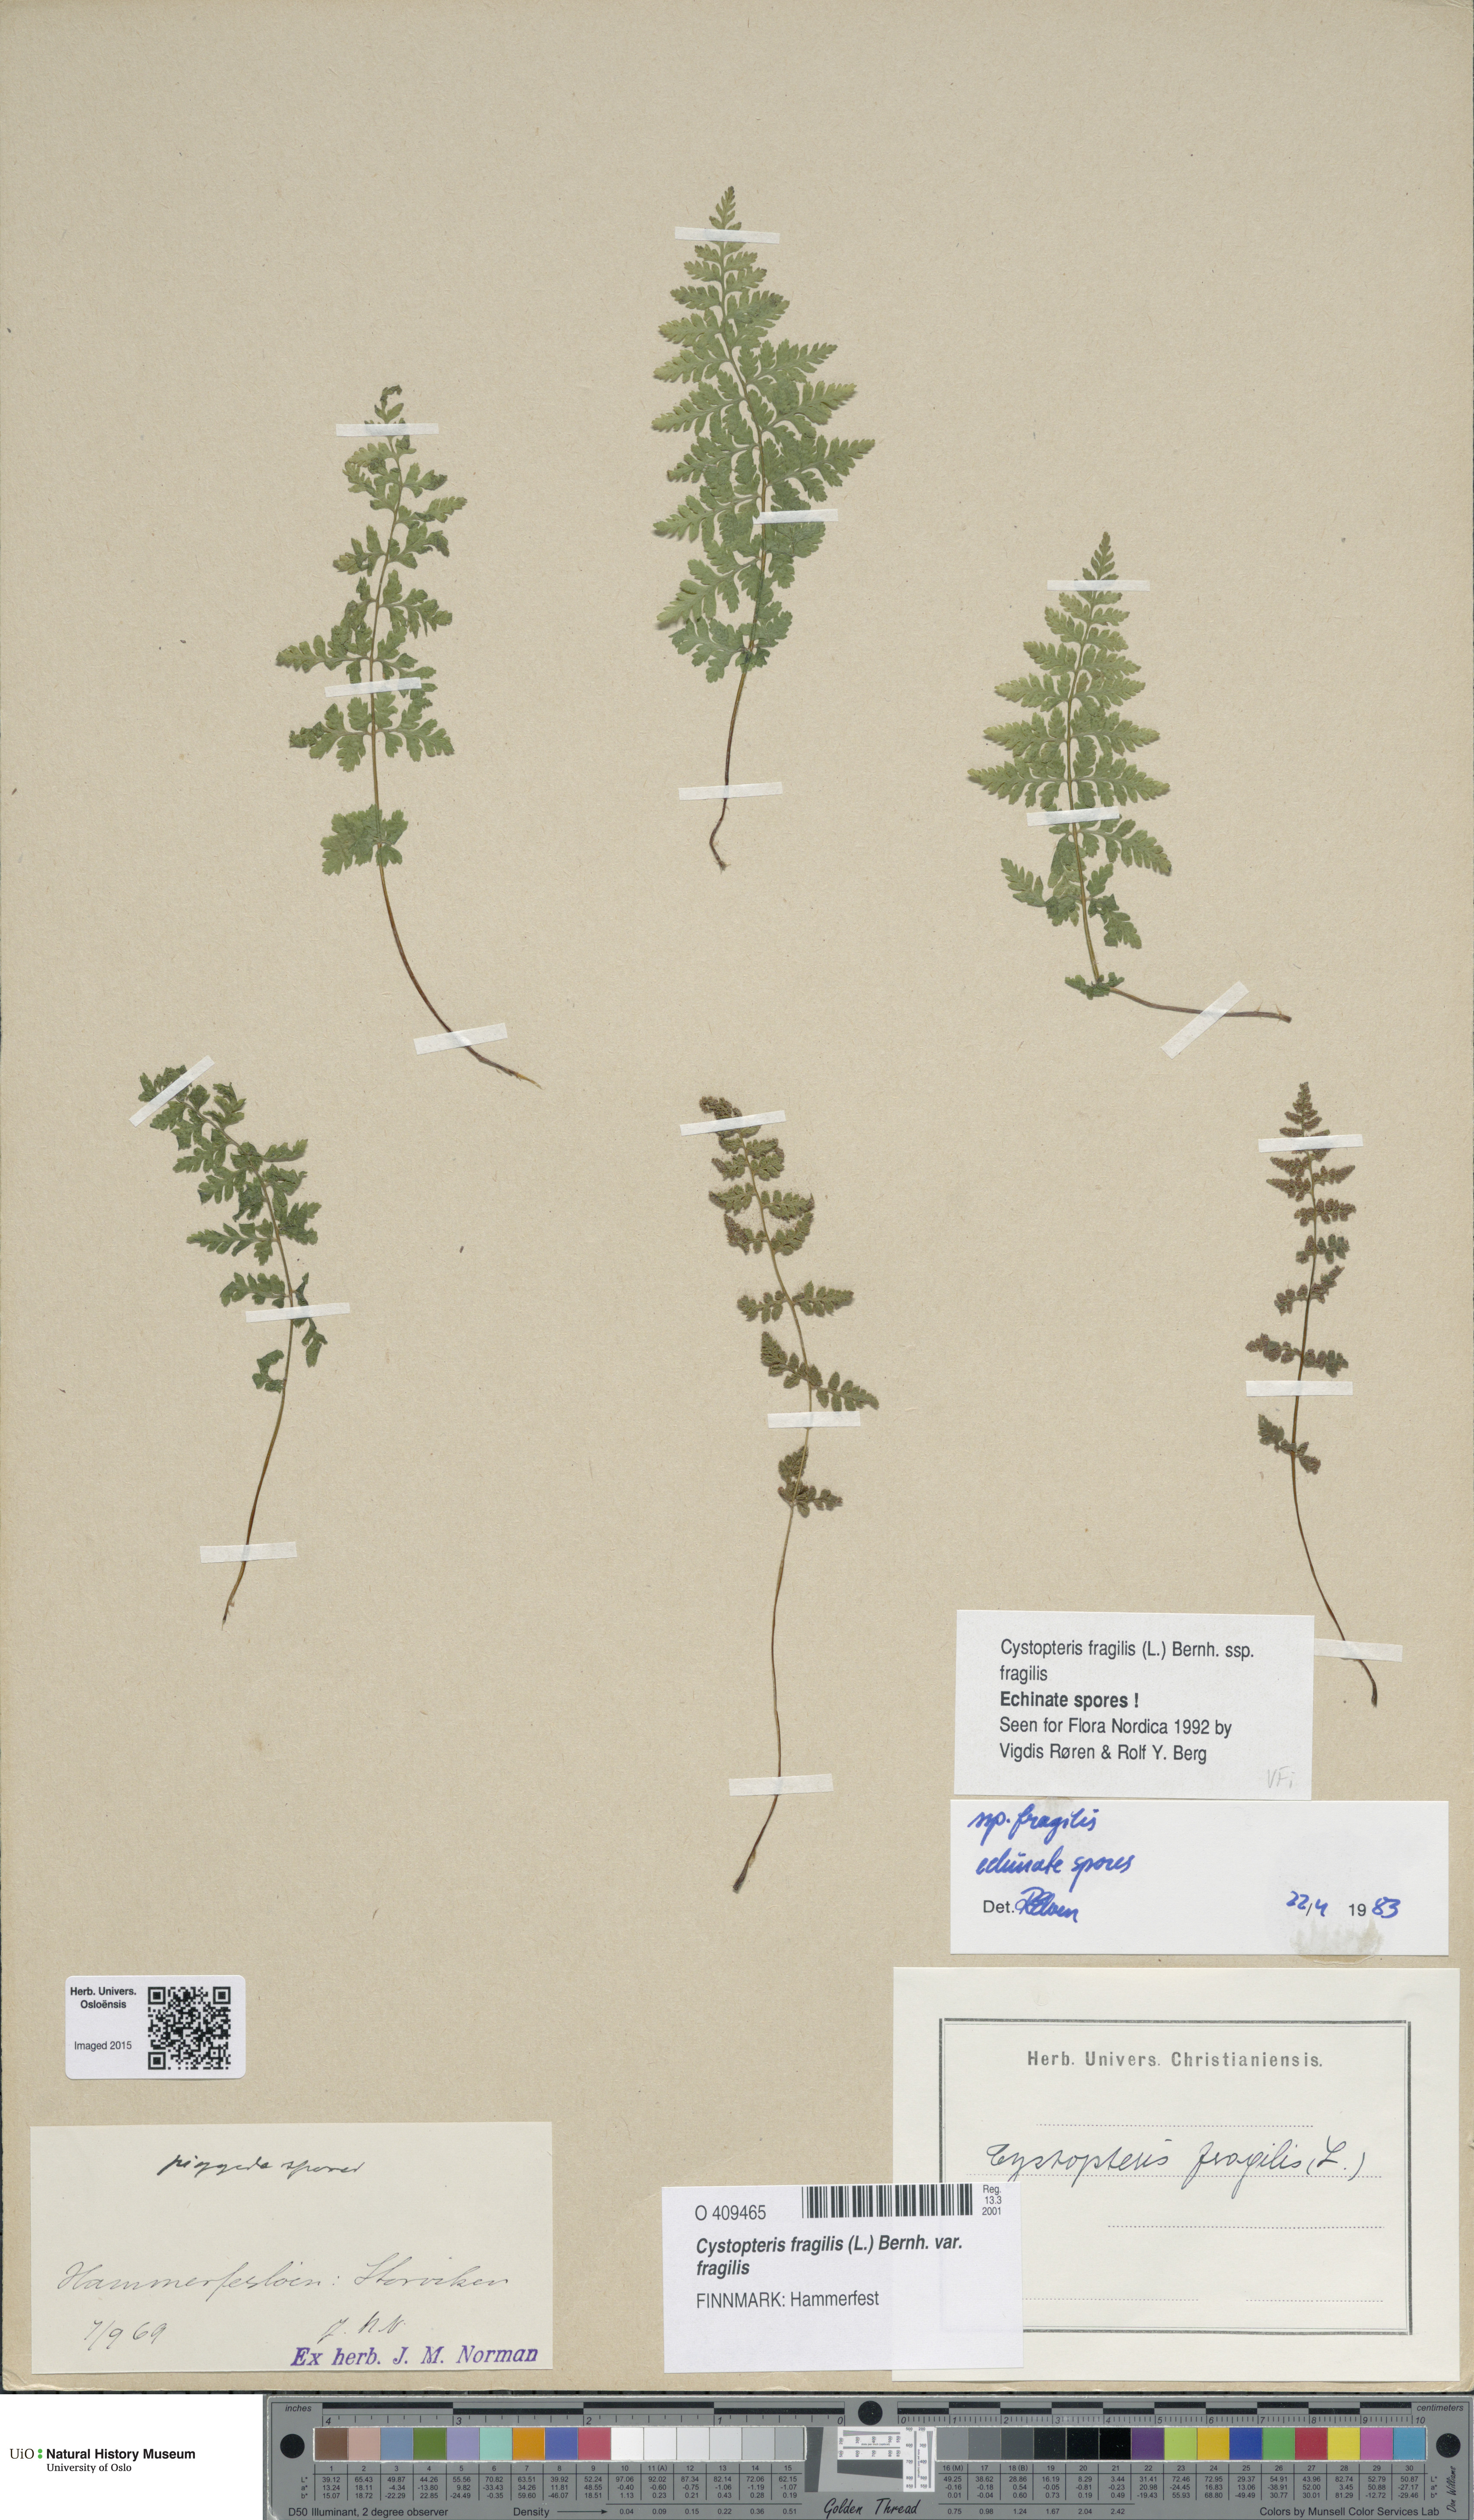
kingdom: Plantae
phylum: Tracheophyta
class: Polypodiopsida
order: Polypodiales
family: Cystopteridaceae
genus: Cystopteris
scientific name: Cystopteris fragilis
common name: Brittle bladder fern
